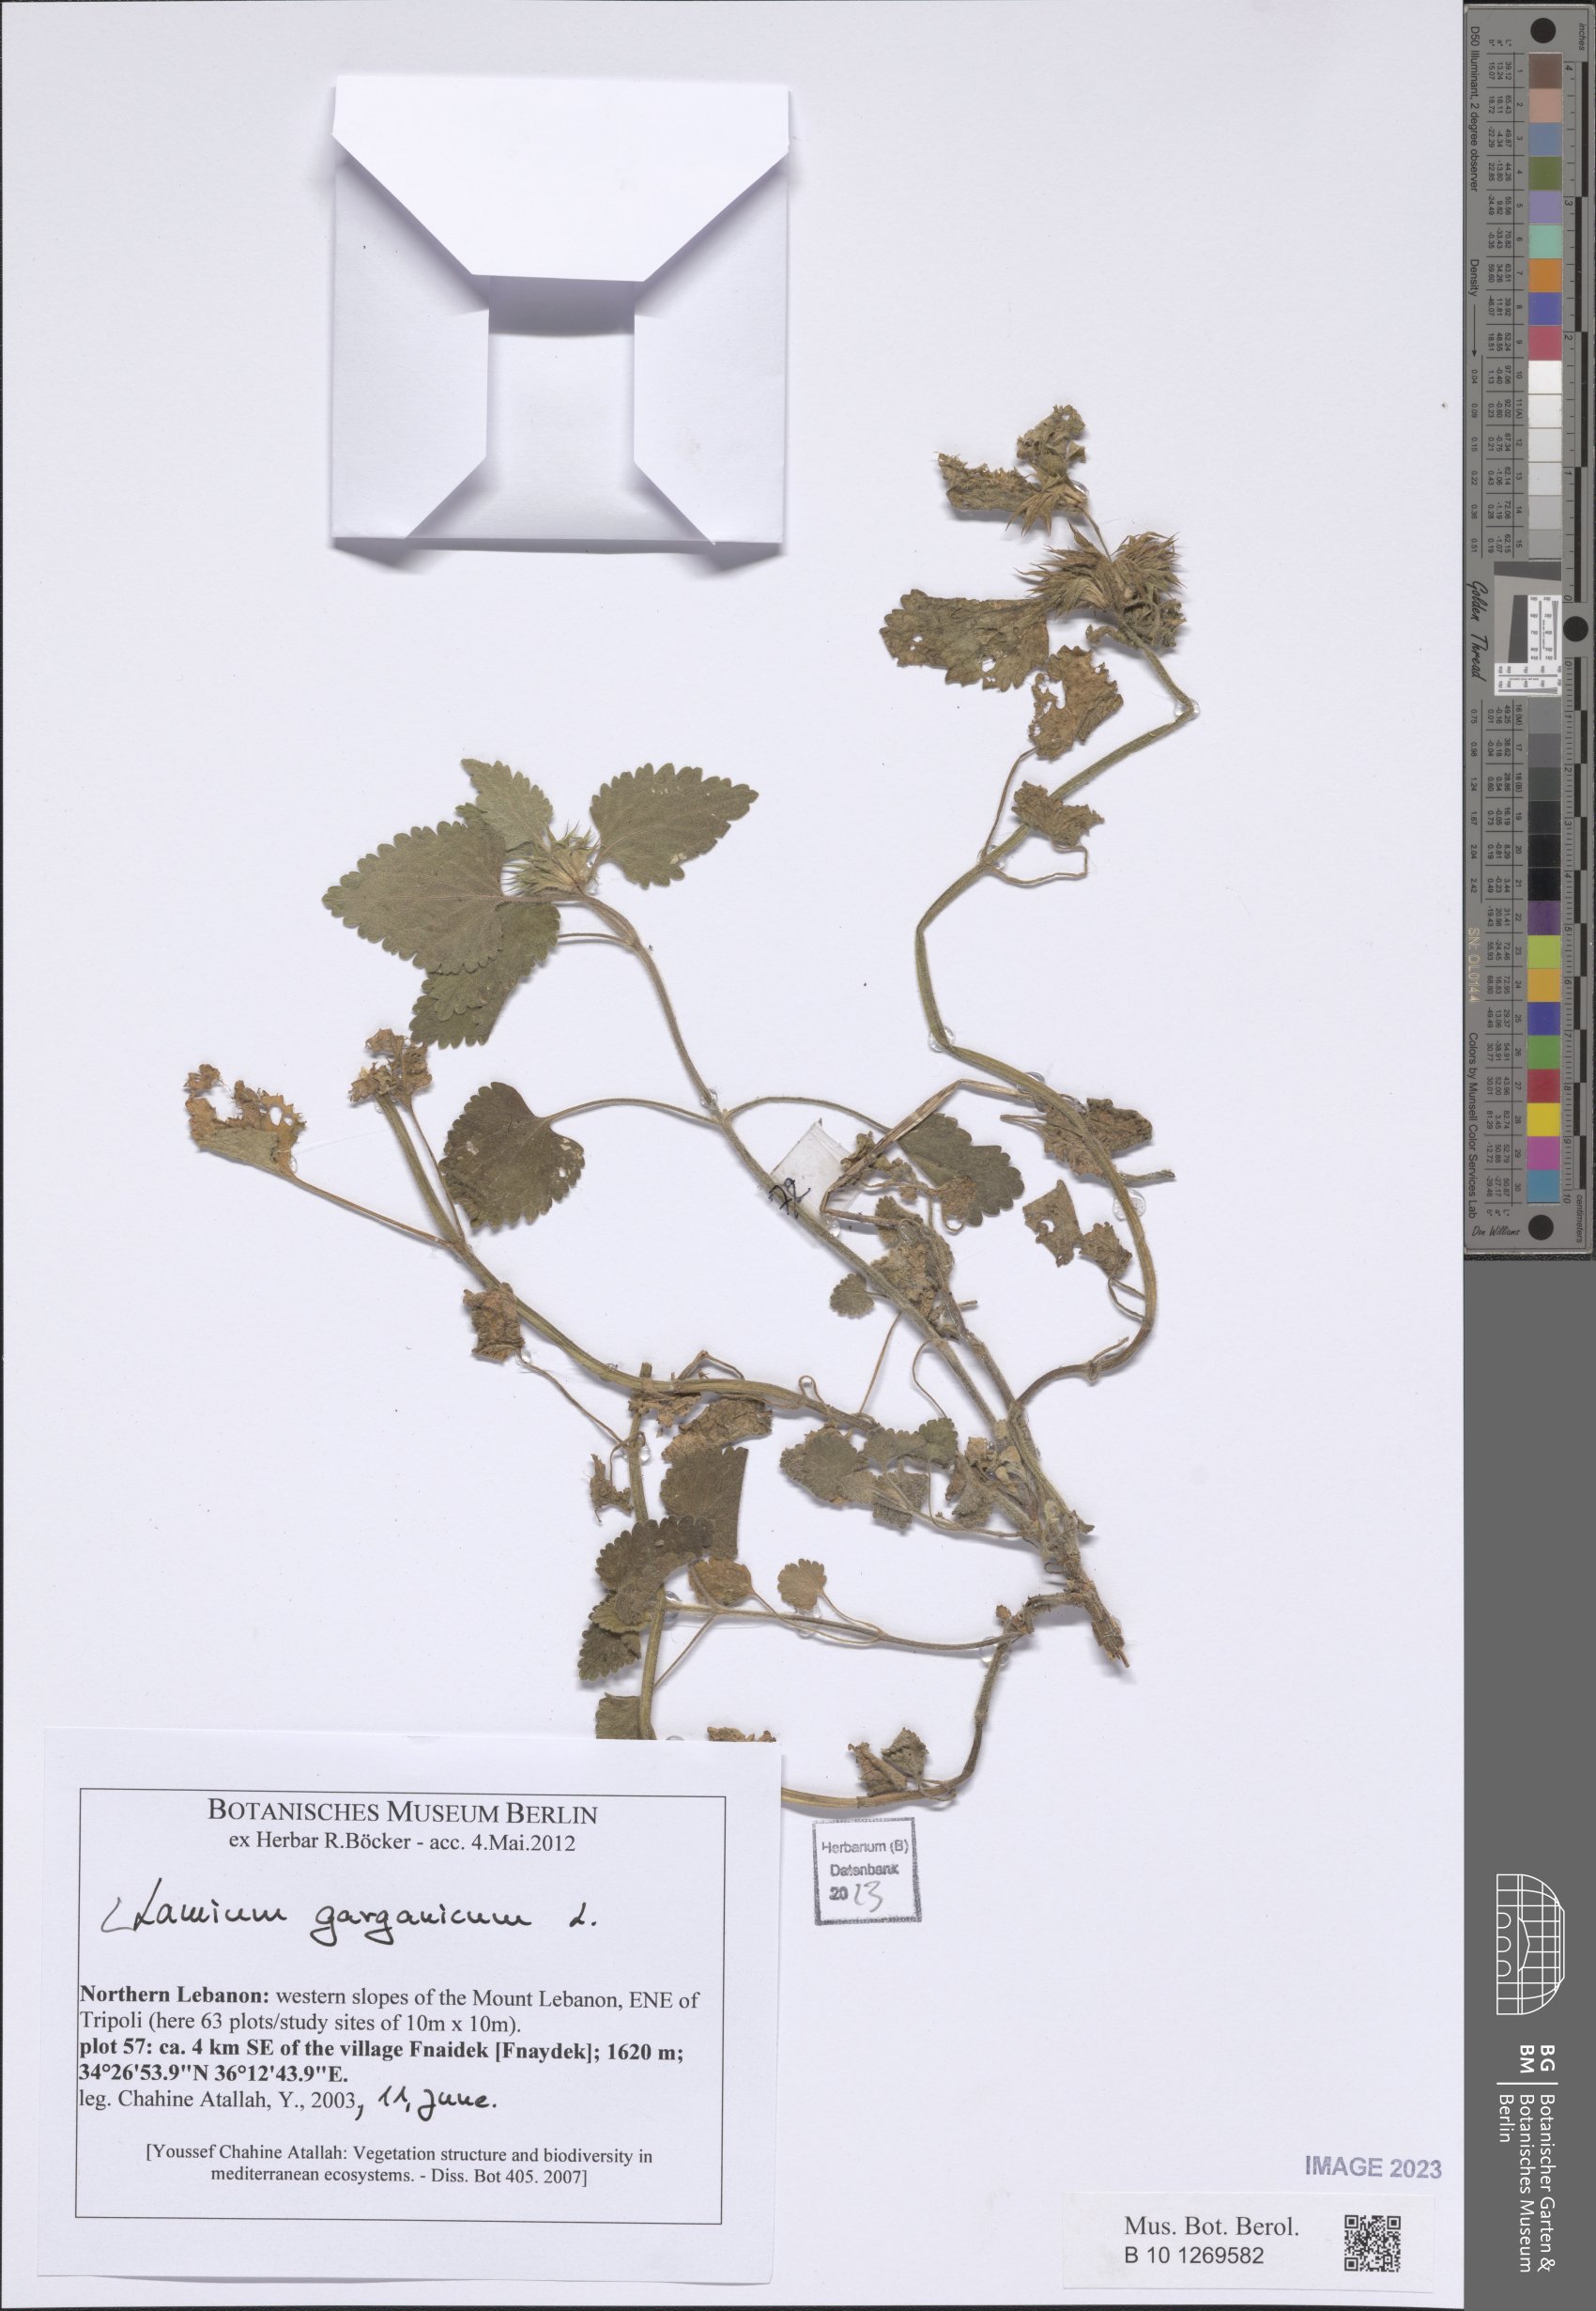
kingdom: Plantae
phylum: Tracheophyta
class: Magnoliopsida
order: Lamiales
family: Lamiaceae
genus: Lamium
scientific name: Lamium garganicum
